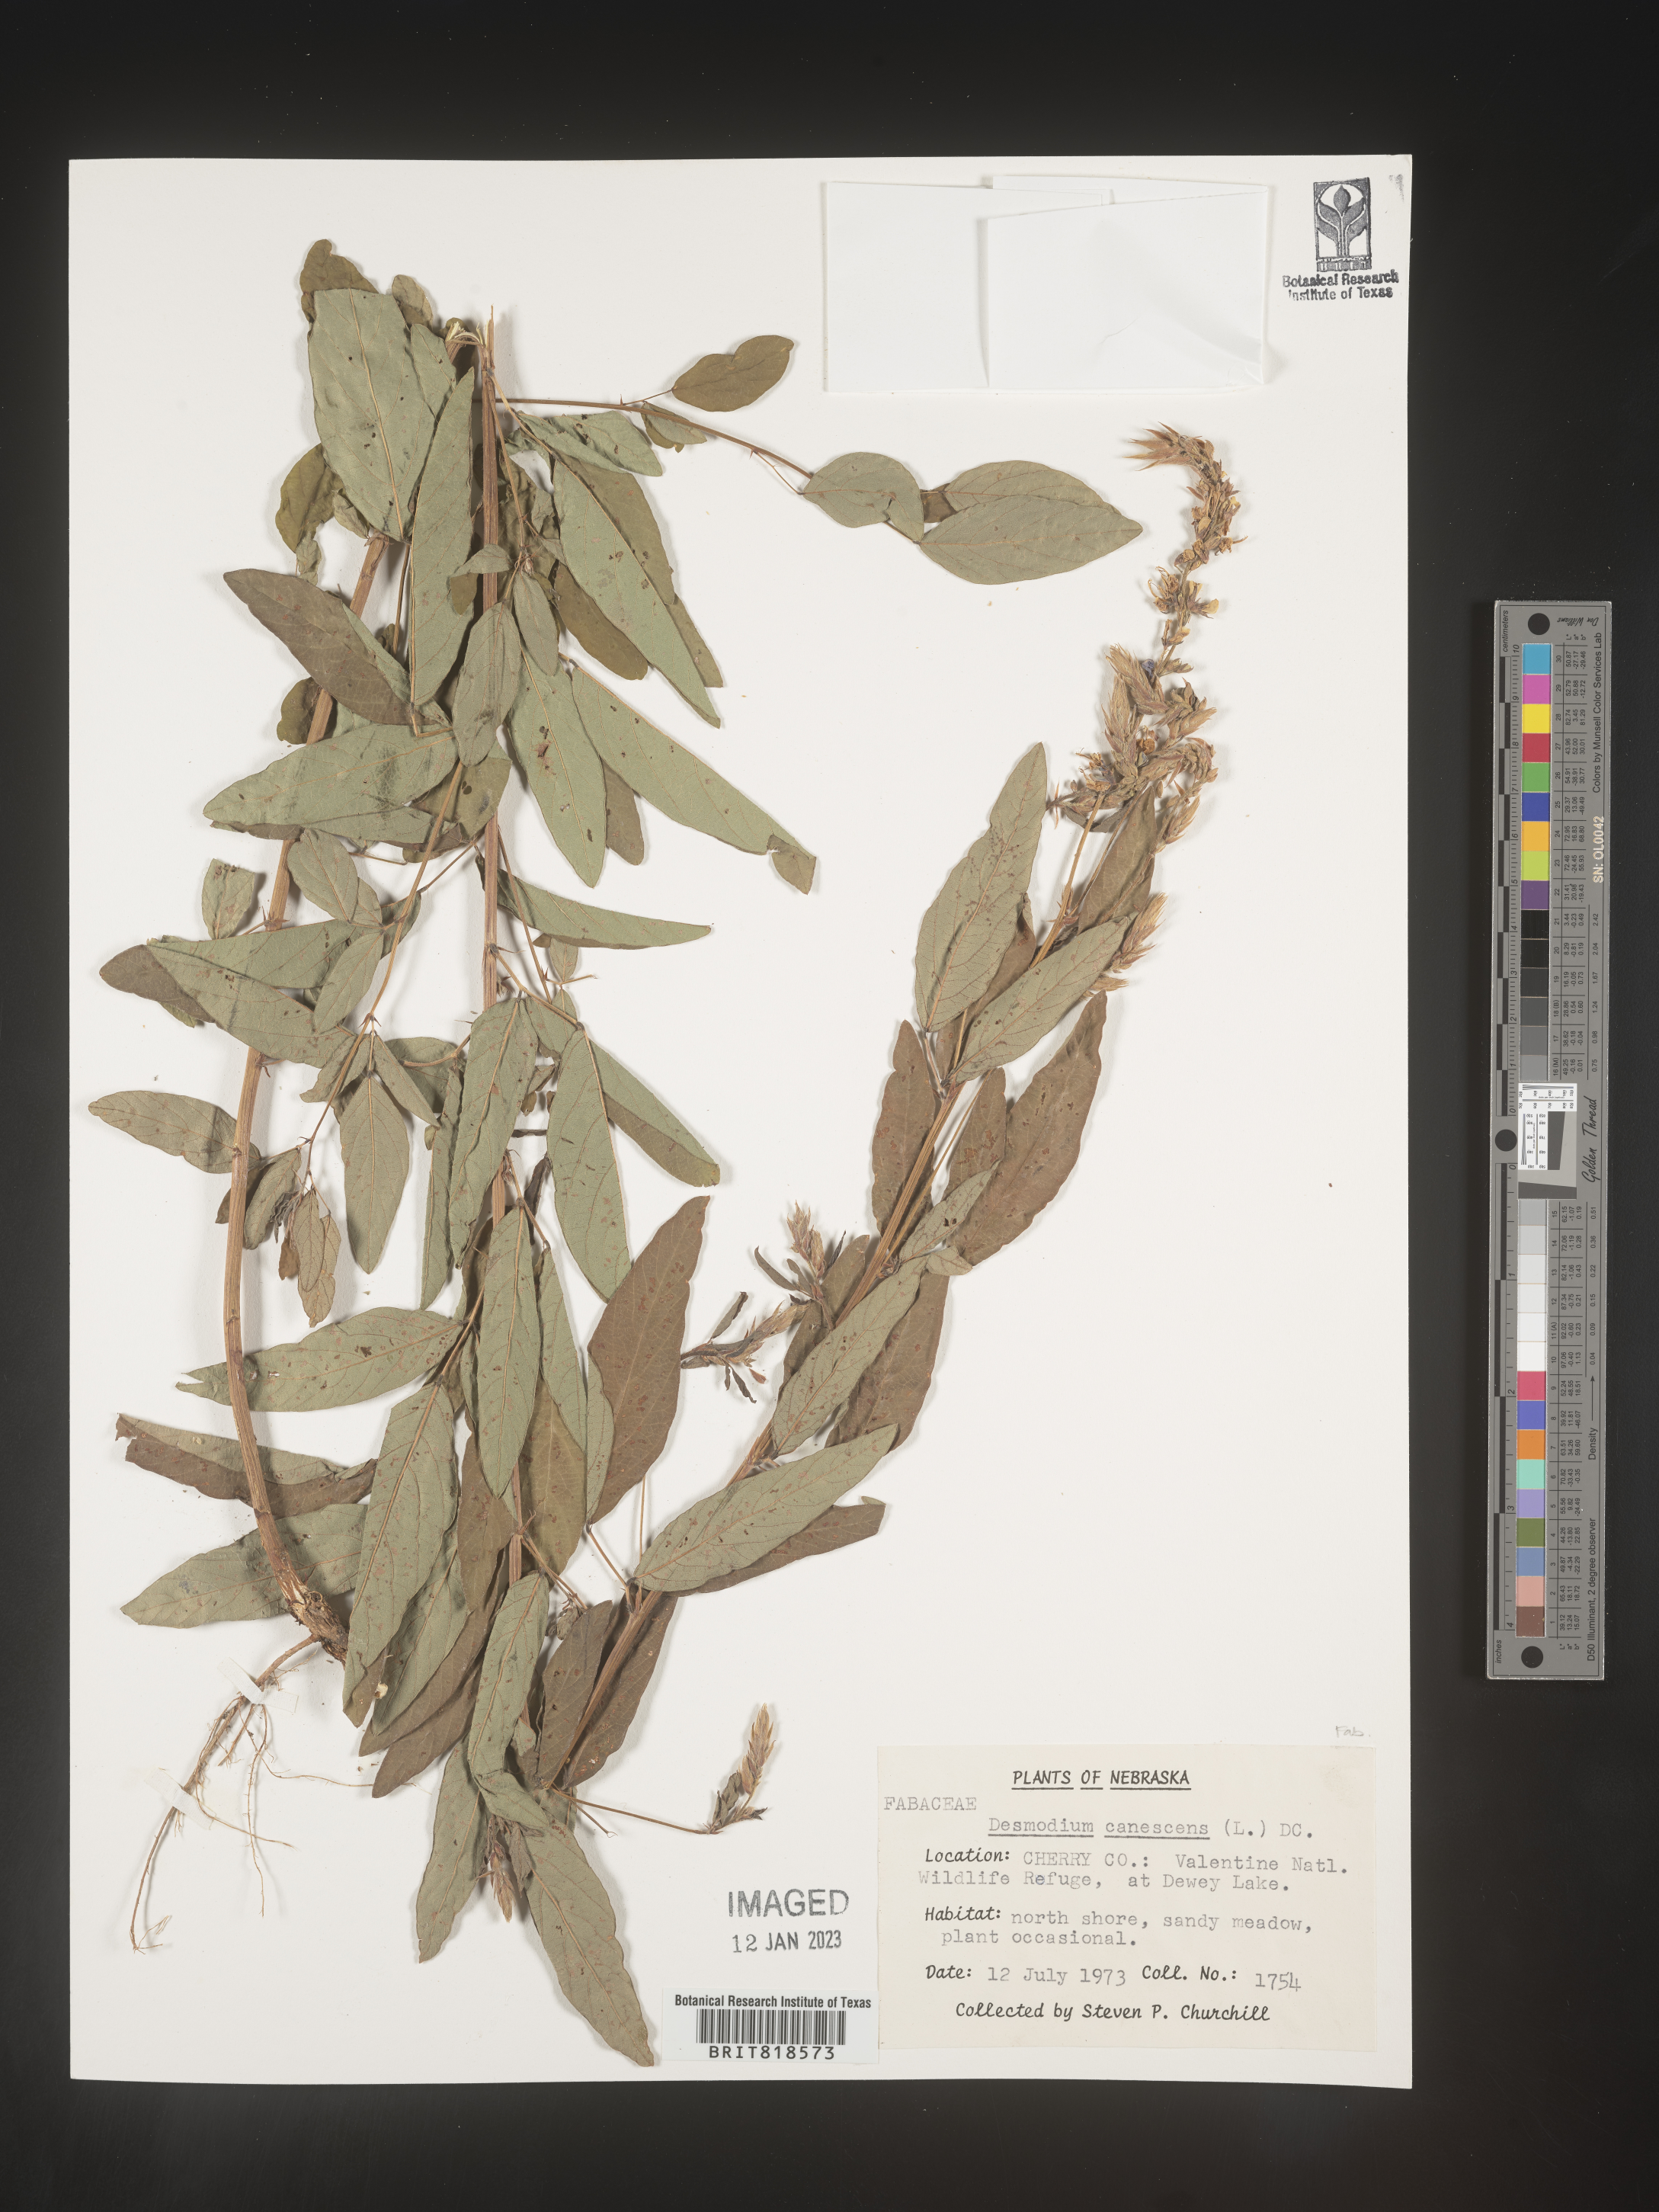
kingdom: Plantae
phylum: Tracheophyta
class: Magnoliopsida
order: Fabales
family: Fabaceae
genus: Desmodium
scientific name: Desmodium canescens
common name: Hoary tick-clover
